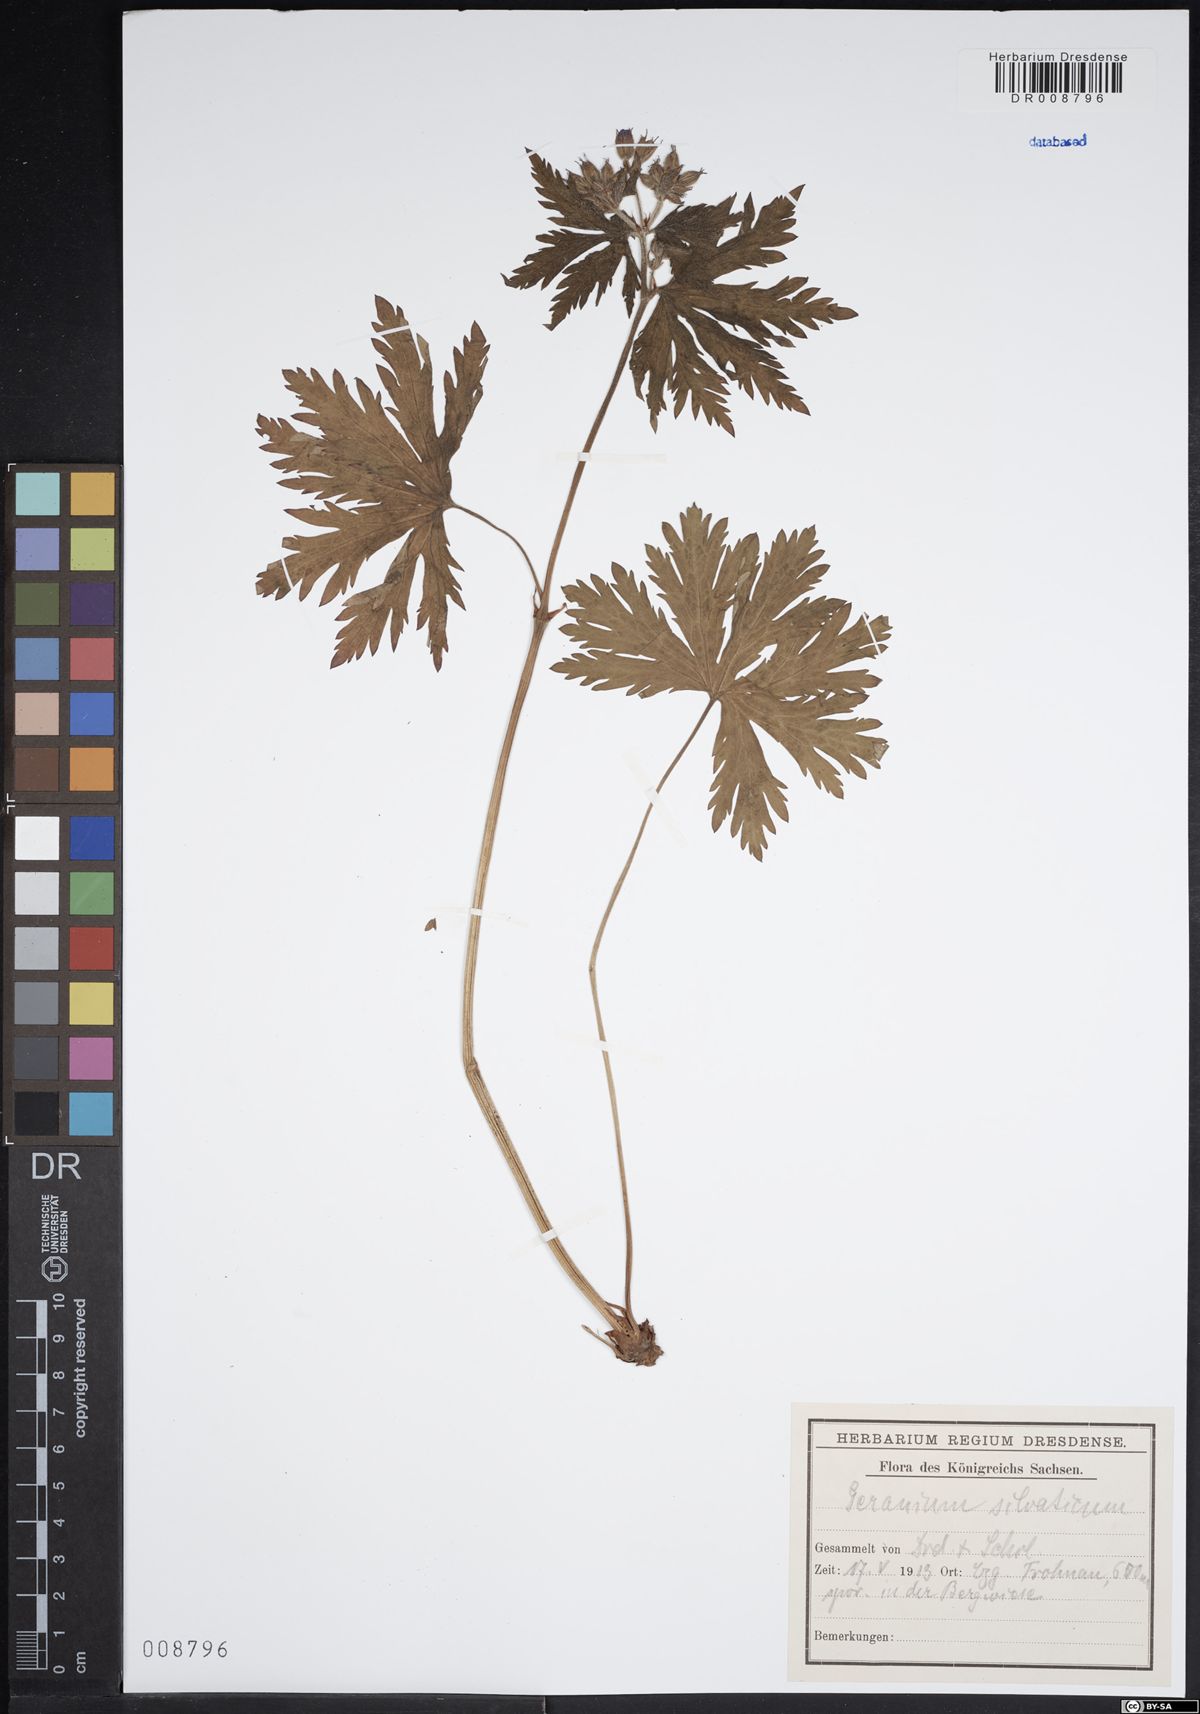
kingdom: Plantae
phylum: Tracheophyta
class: Magnoliopsida
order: Geraniales
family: Geraniaceae
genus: Geranium
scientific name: Geranium sylvaticum
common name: Wood crane's-bill
